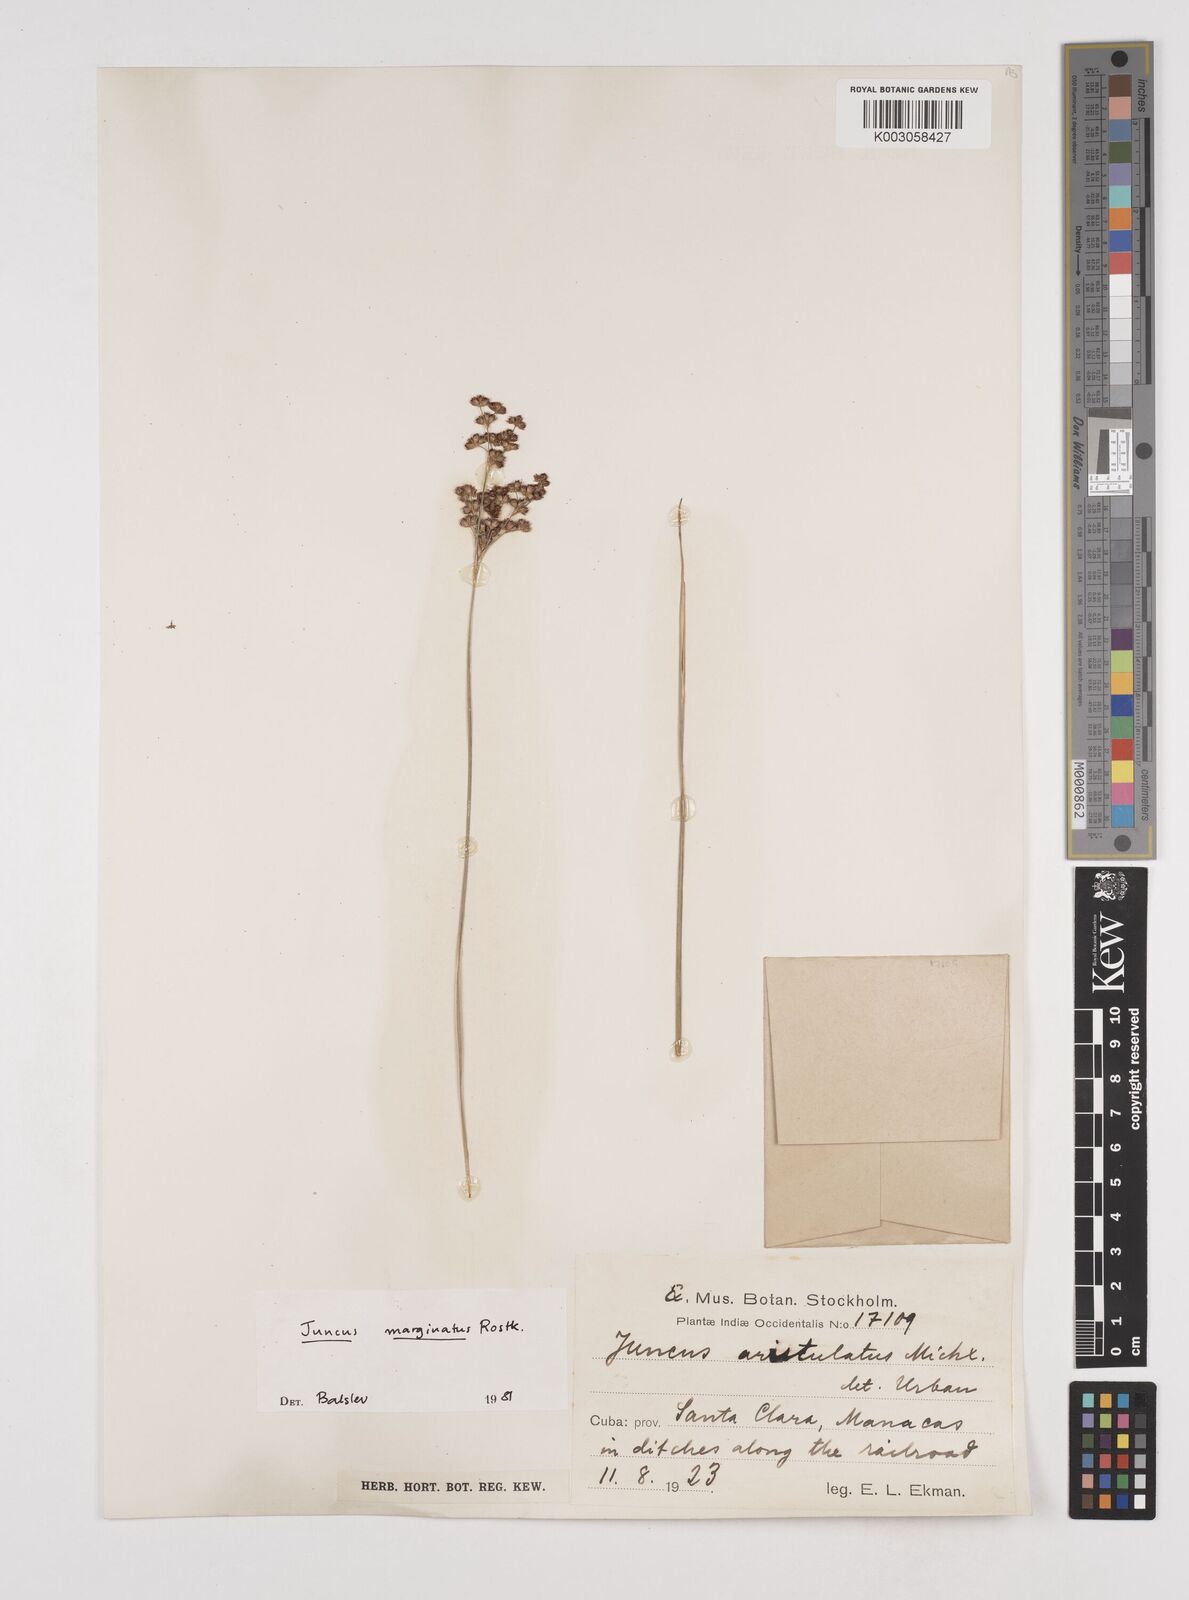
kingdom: Plantae
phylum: Tracheophyta
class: Liliopsida
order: Poales
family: Juncaceae
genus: Juncus
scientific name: Juncus marginatus
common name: Grass-leaf rush
